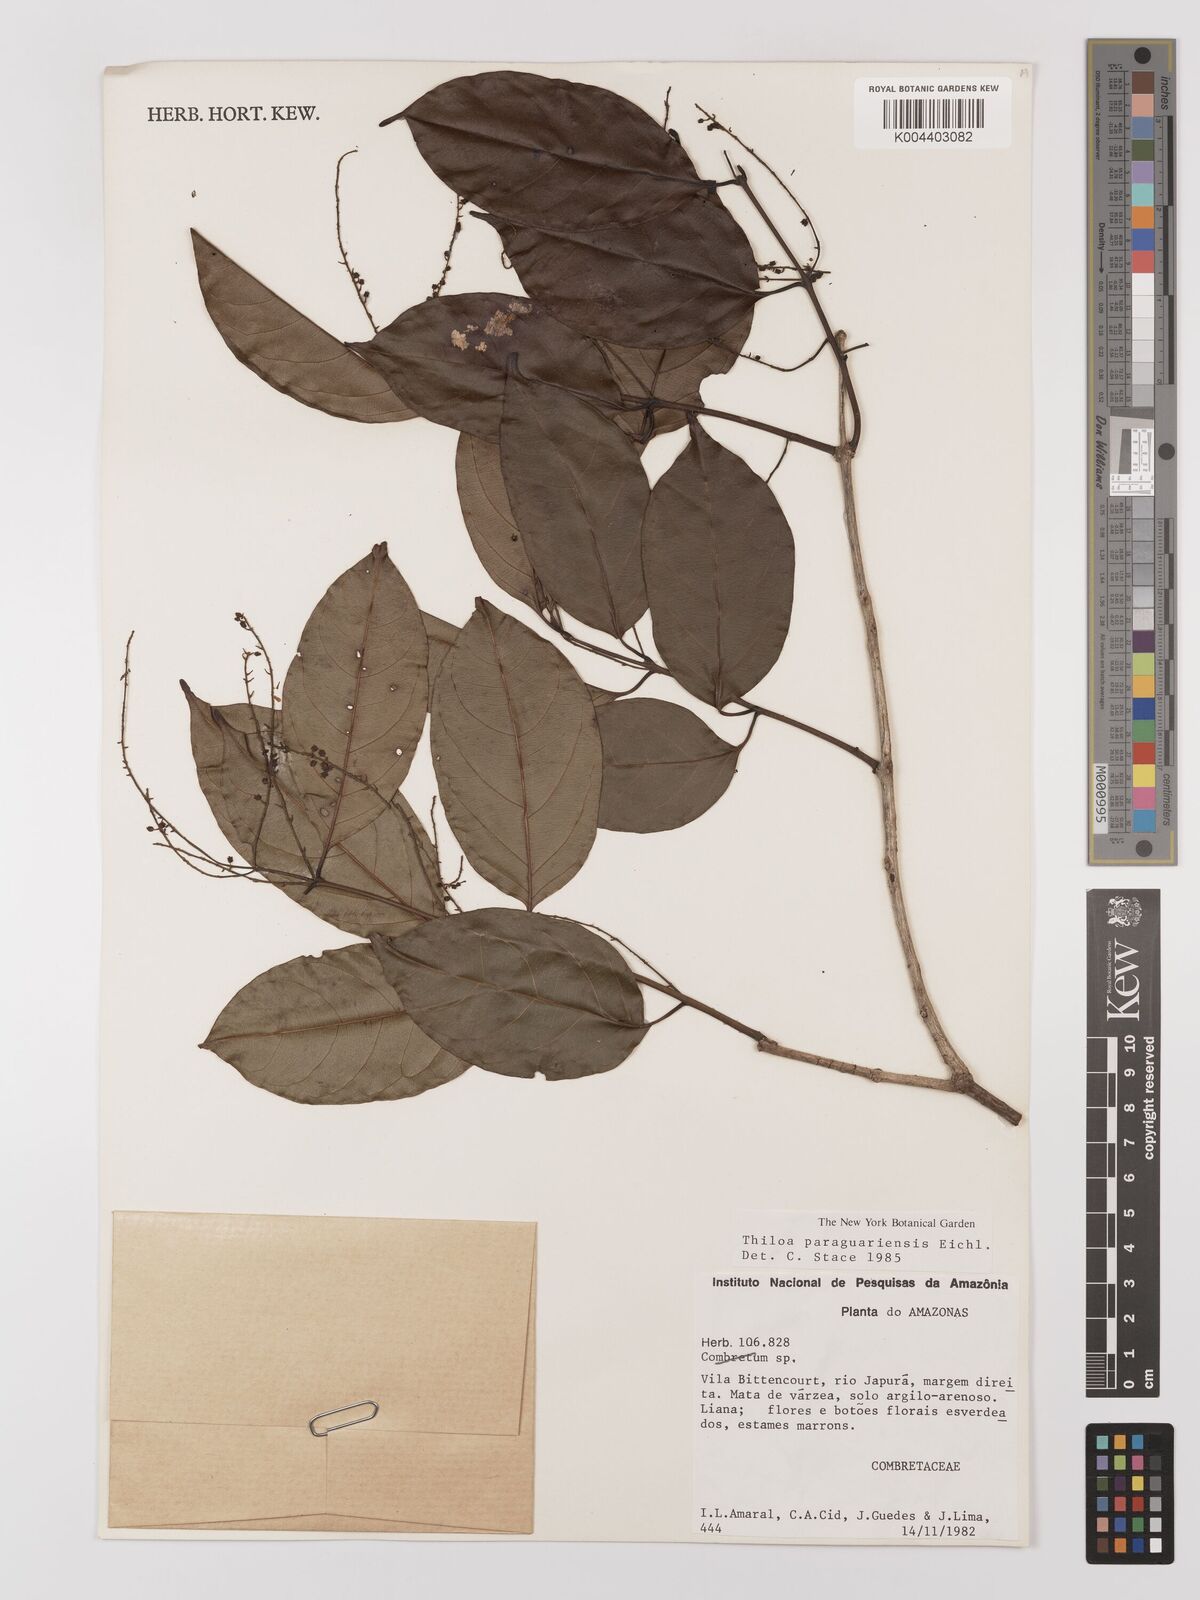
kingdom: Plantae
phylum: Tracheophyta
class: Magnoliopsida
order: Myrtales
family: Combretaceae
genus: Combretum
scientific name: Combretum paraguariense
